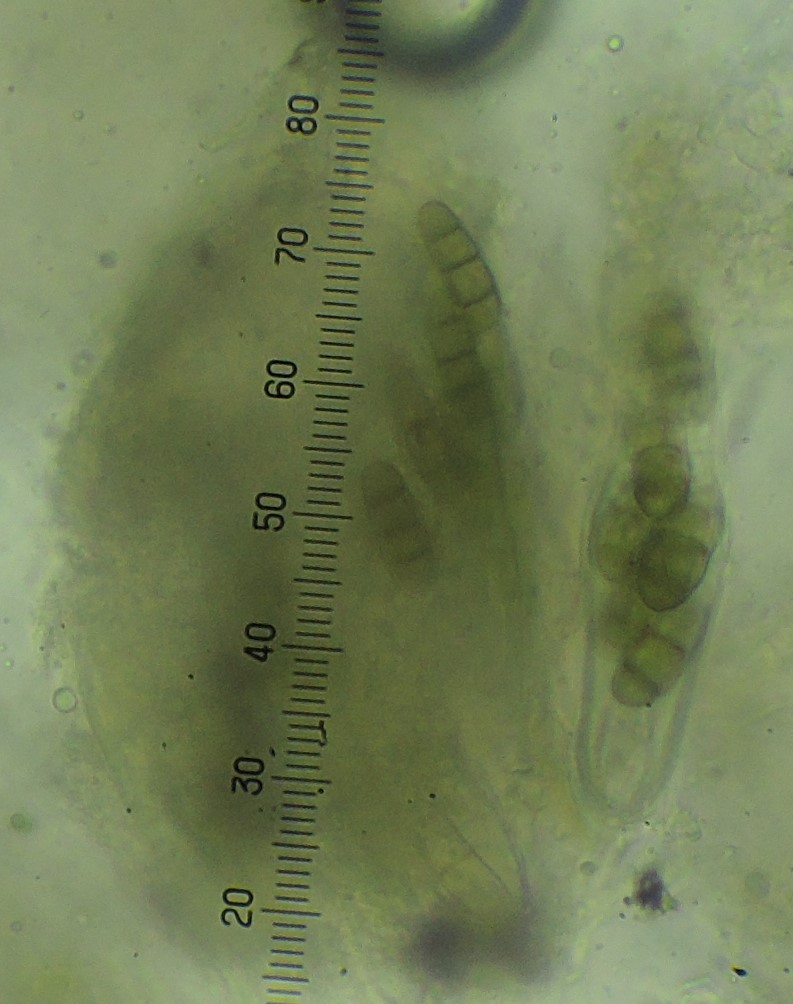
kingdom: Fungi
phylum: Ascomycota
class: Dothideomycetes
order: Hysteriales
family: Hysteriaceae
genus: Hysterium
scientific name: Hysterium acuminatum
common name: almindelig kulmund
